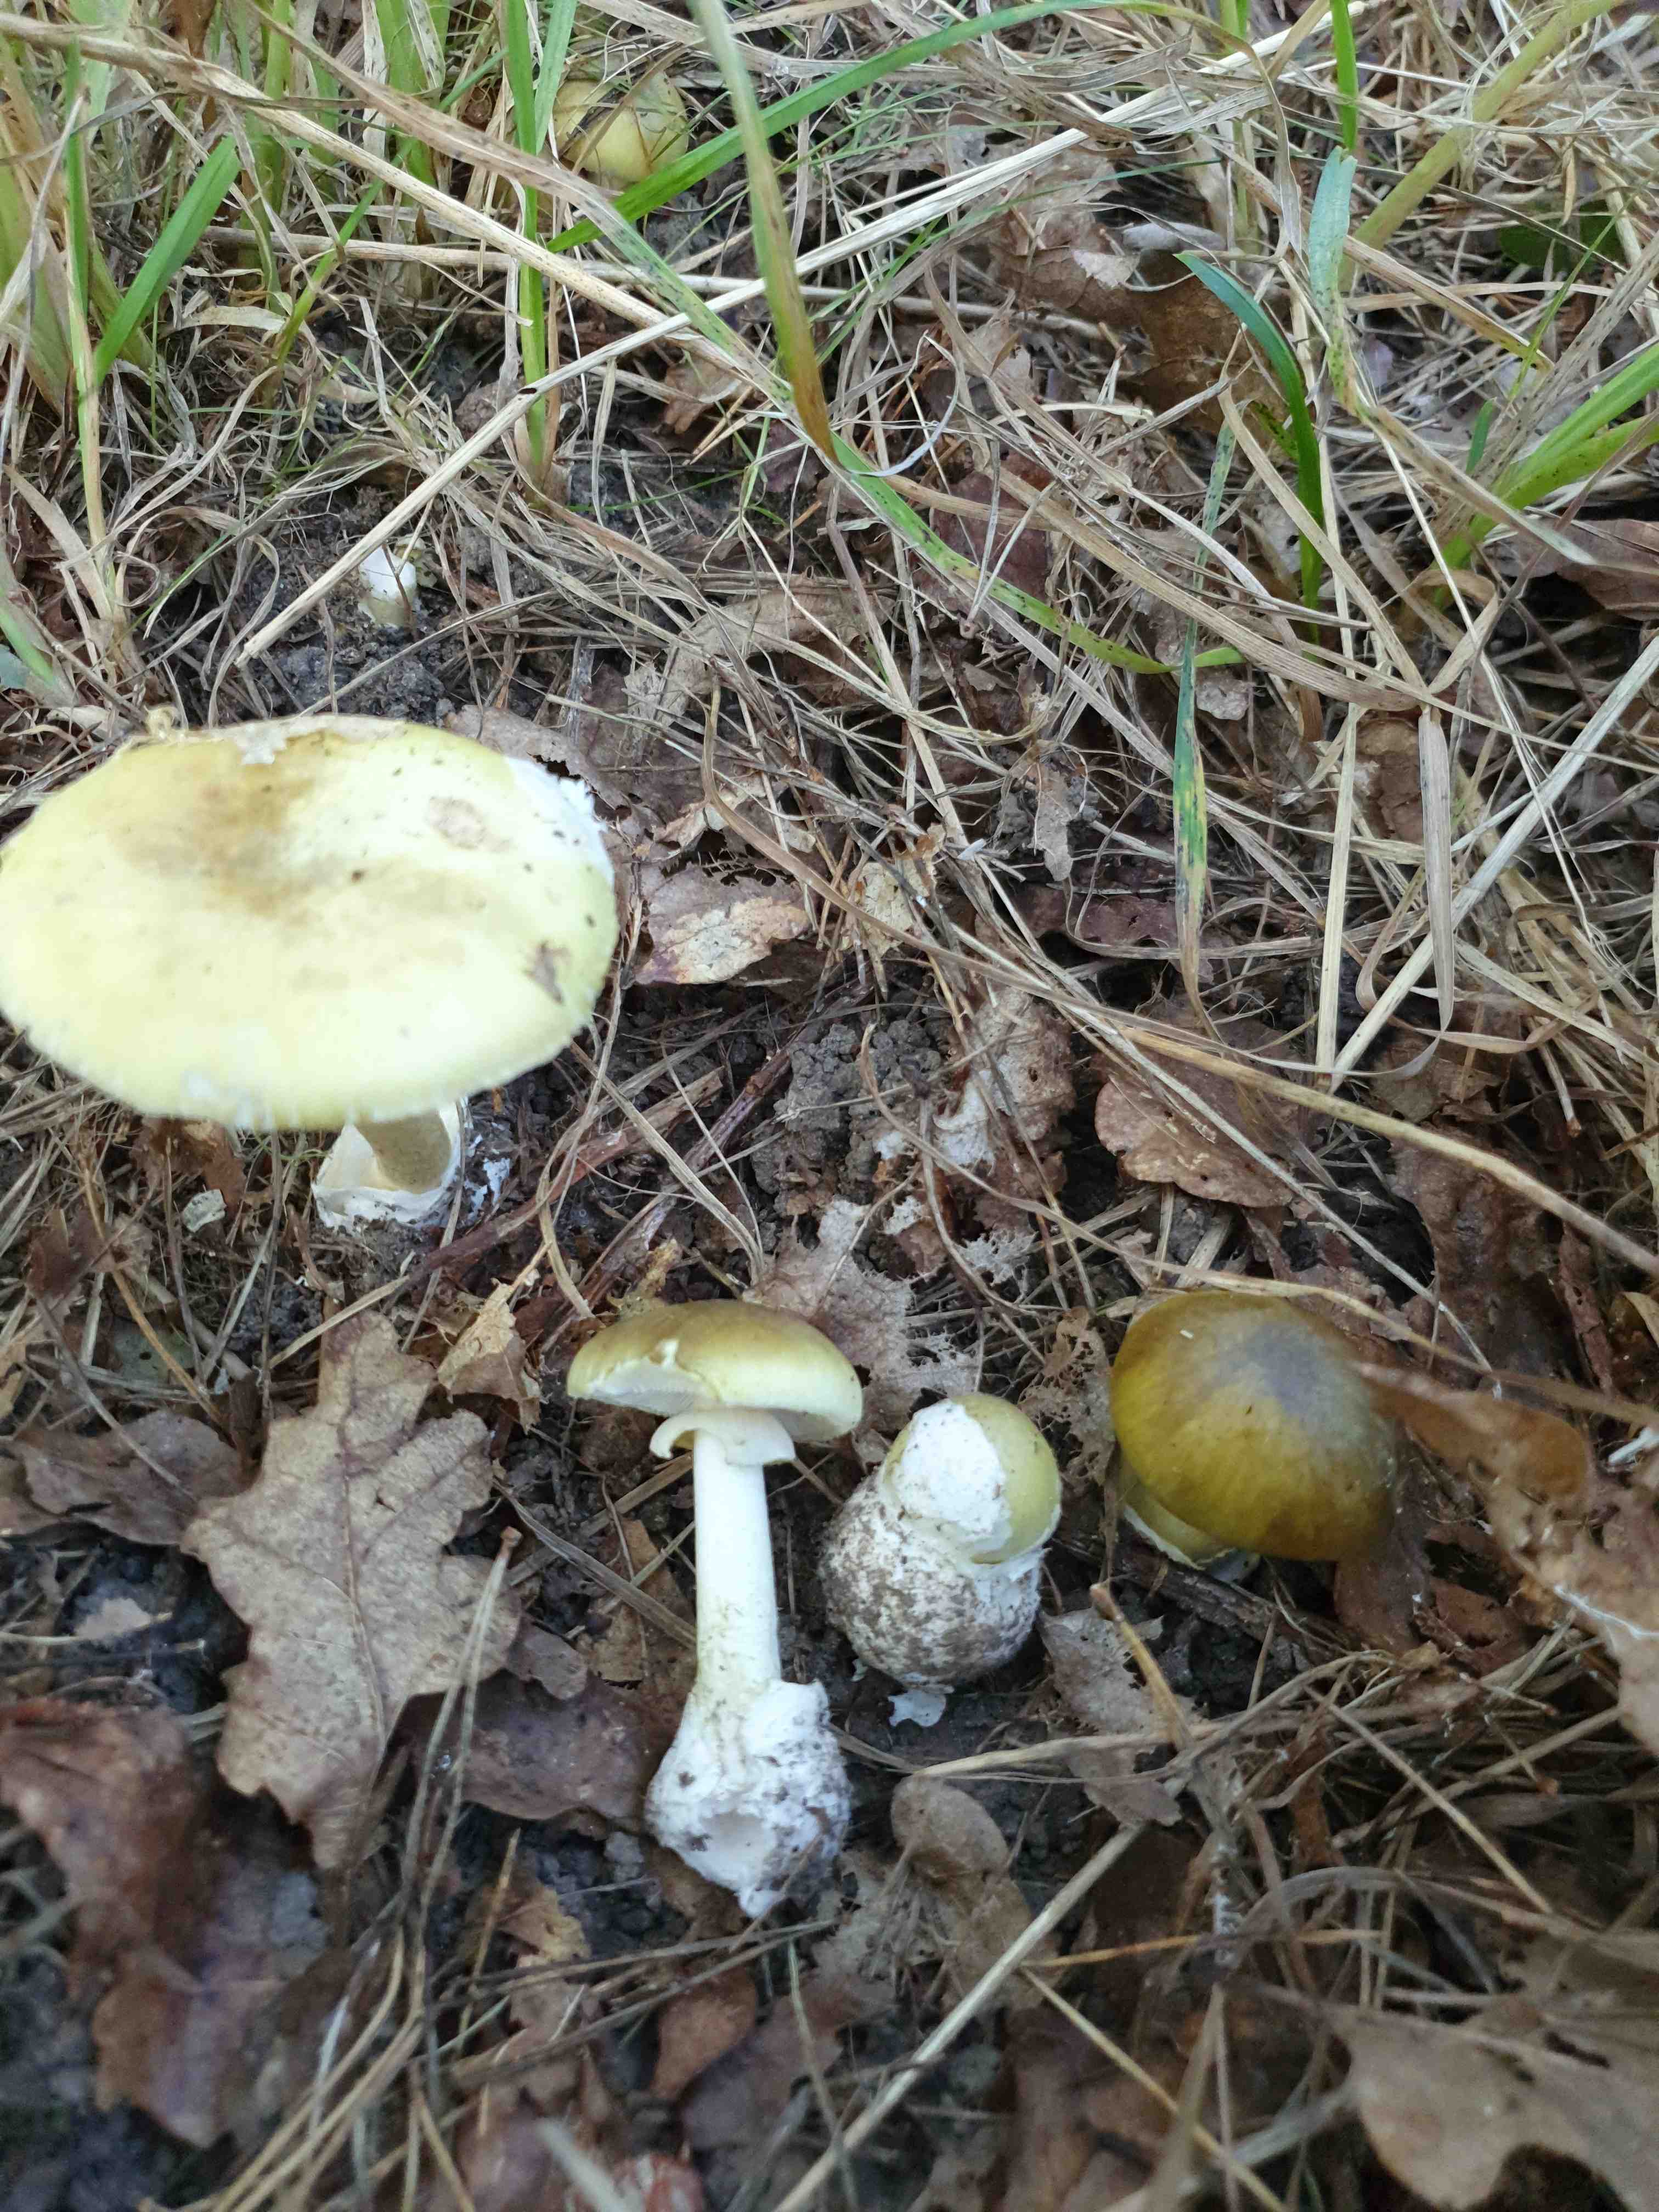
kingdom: Fungi
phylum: Basidiomycota
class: Agaricomycetes
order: Agaricales
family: Amanitaceae
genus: Amanita
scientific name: Amanita phalloides
